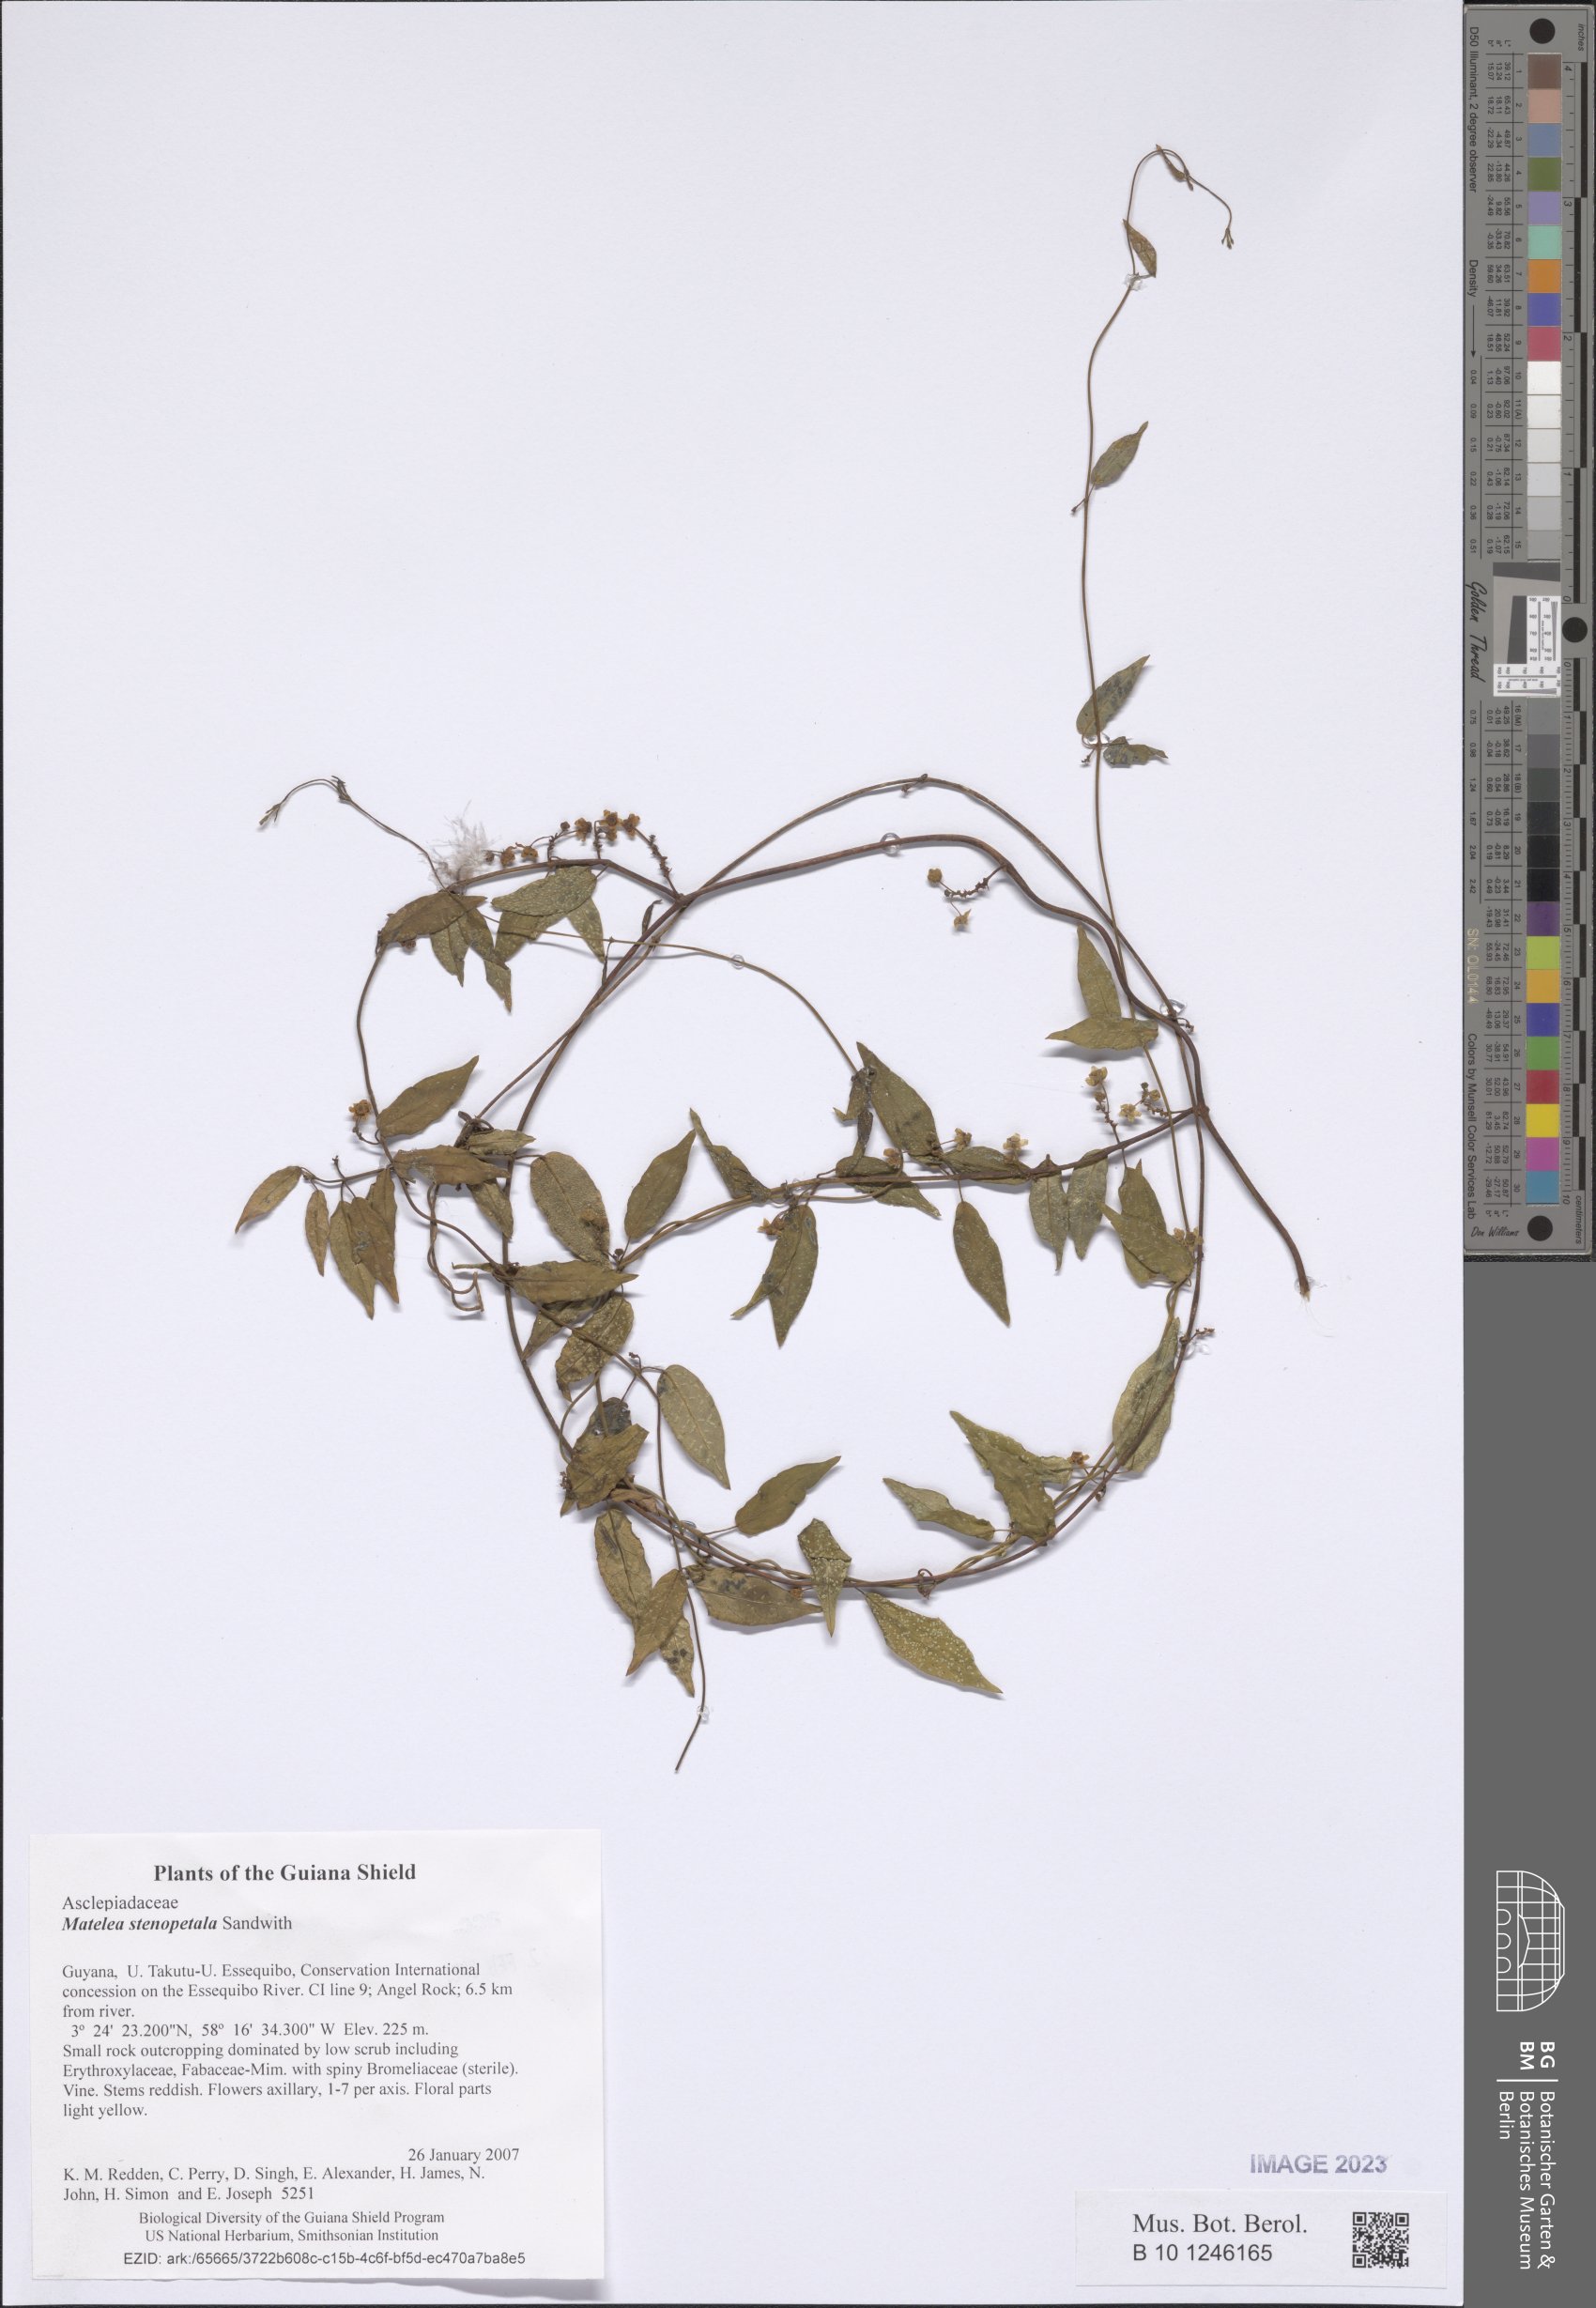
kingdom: Plantae
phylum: Tracheophyta
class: Magnoliopsida
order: Gentianales
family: Apocynaceae
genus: Matelea
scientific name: Matelea stenopetala
